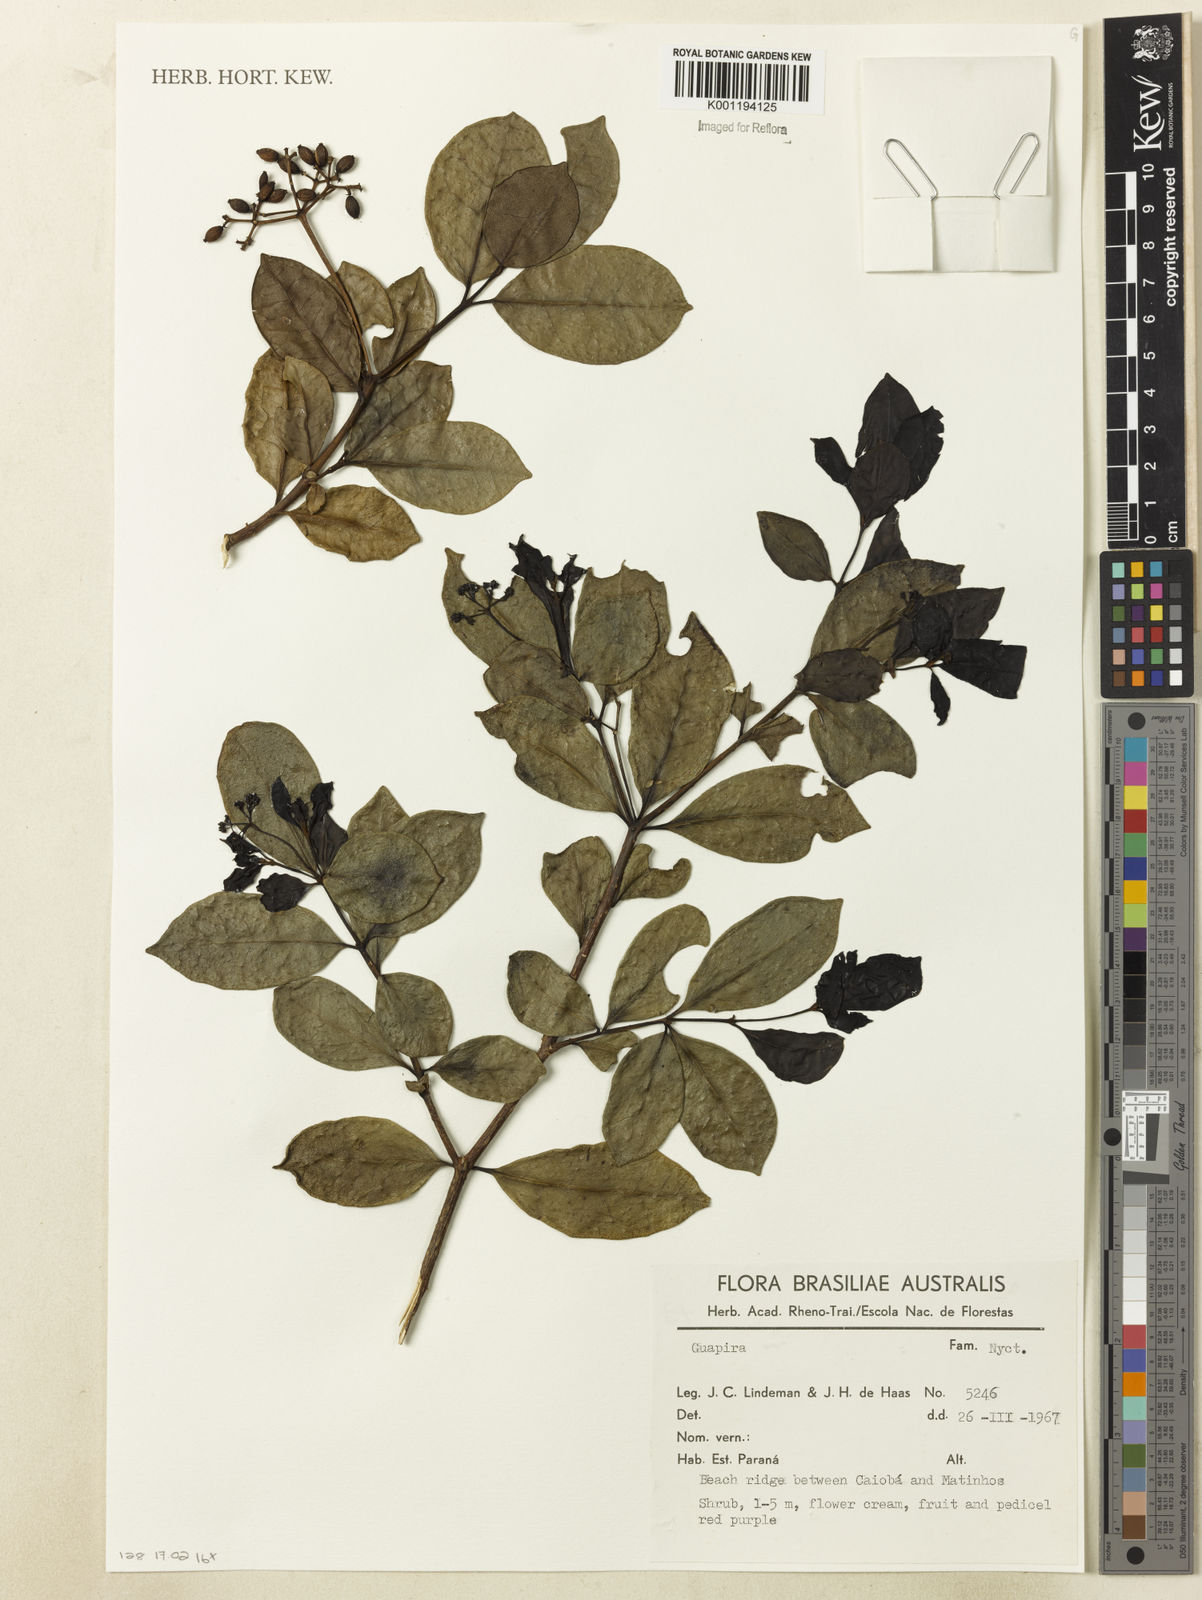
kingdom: Plantae
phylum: Tracheophyta
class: Magnoliopsida
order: Caryophyllales
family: Nyctaginaceae
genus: Guapira
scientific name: Guapira
